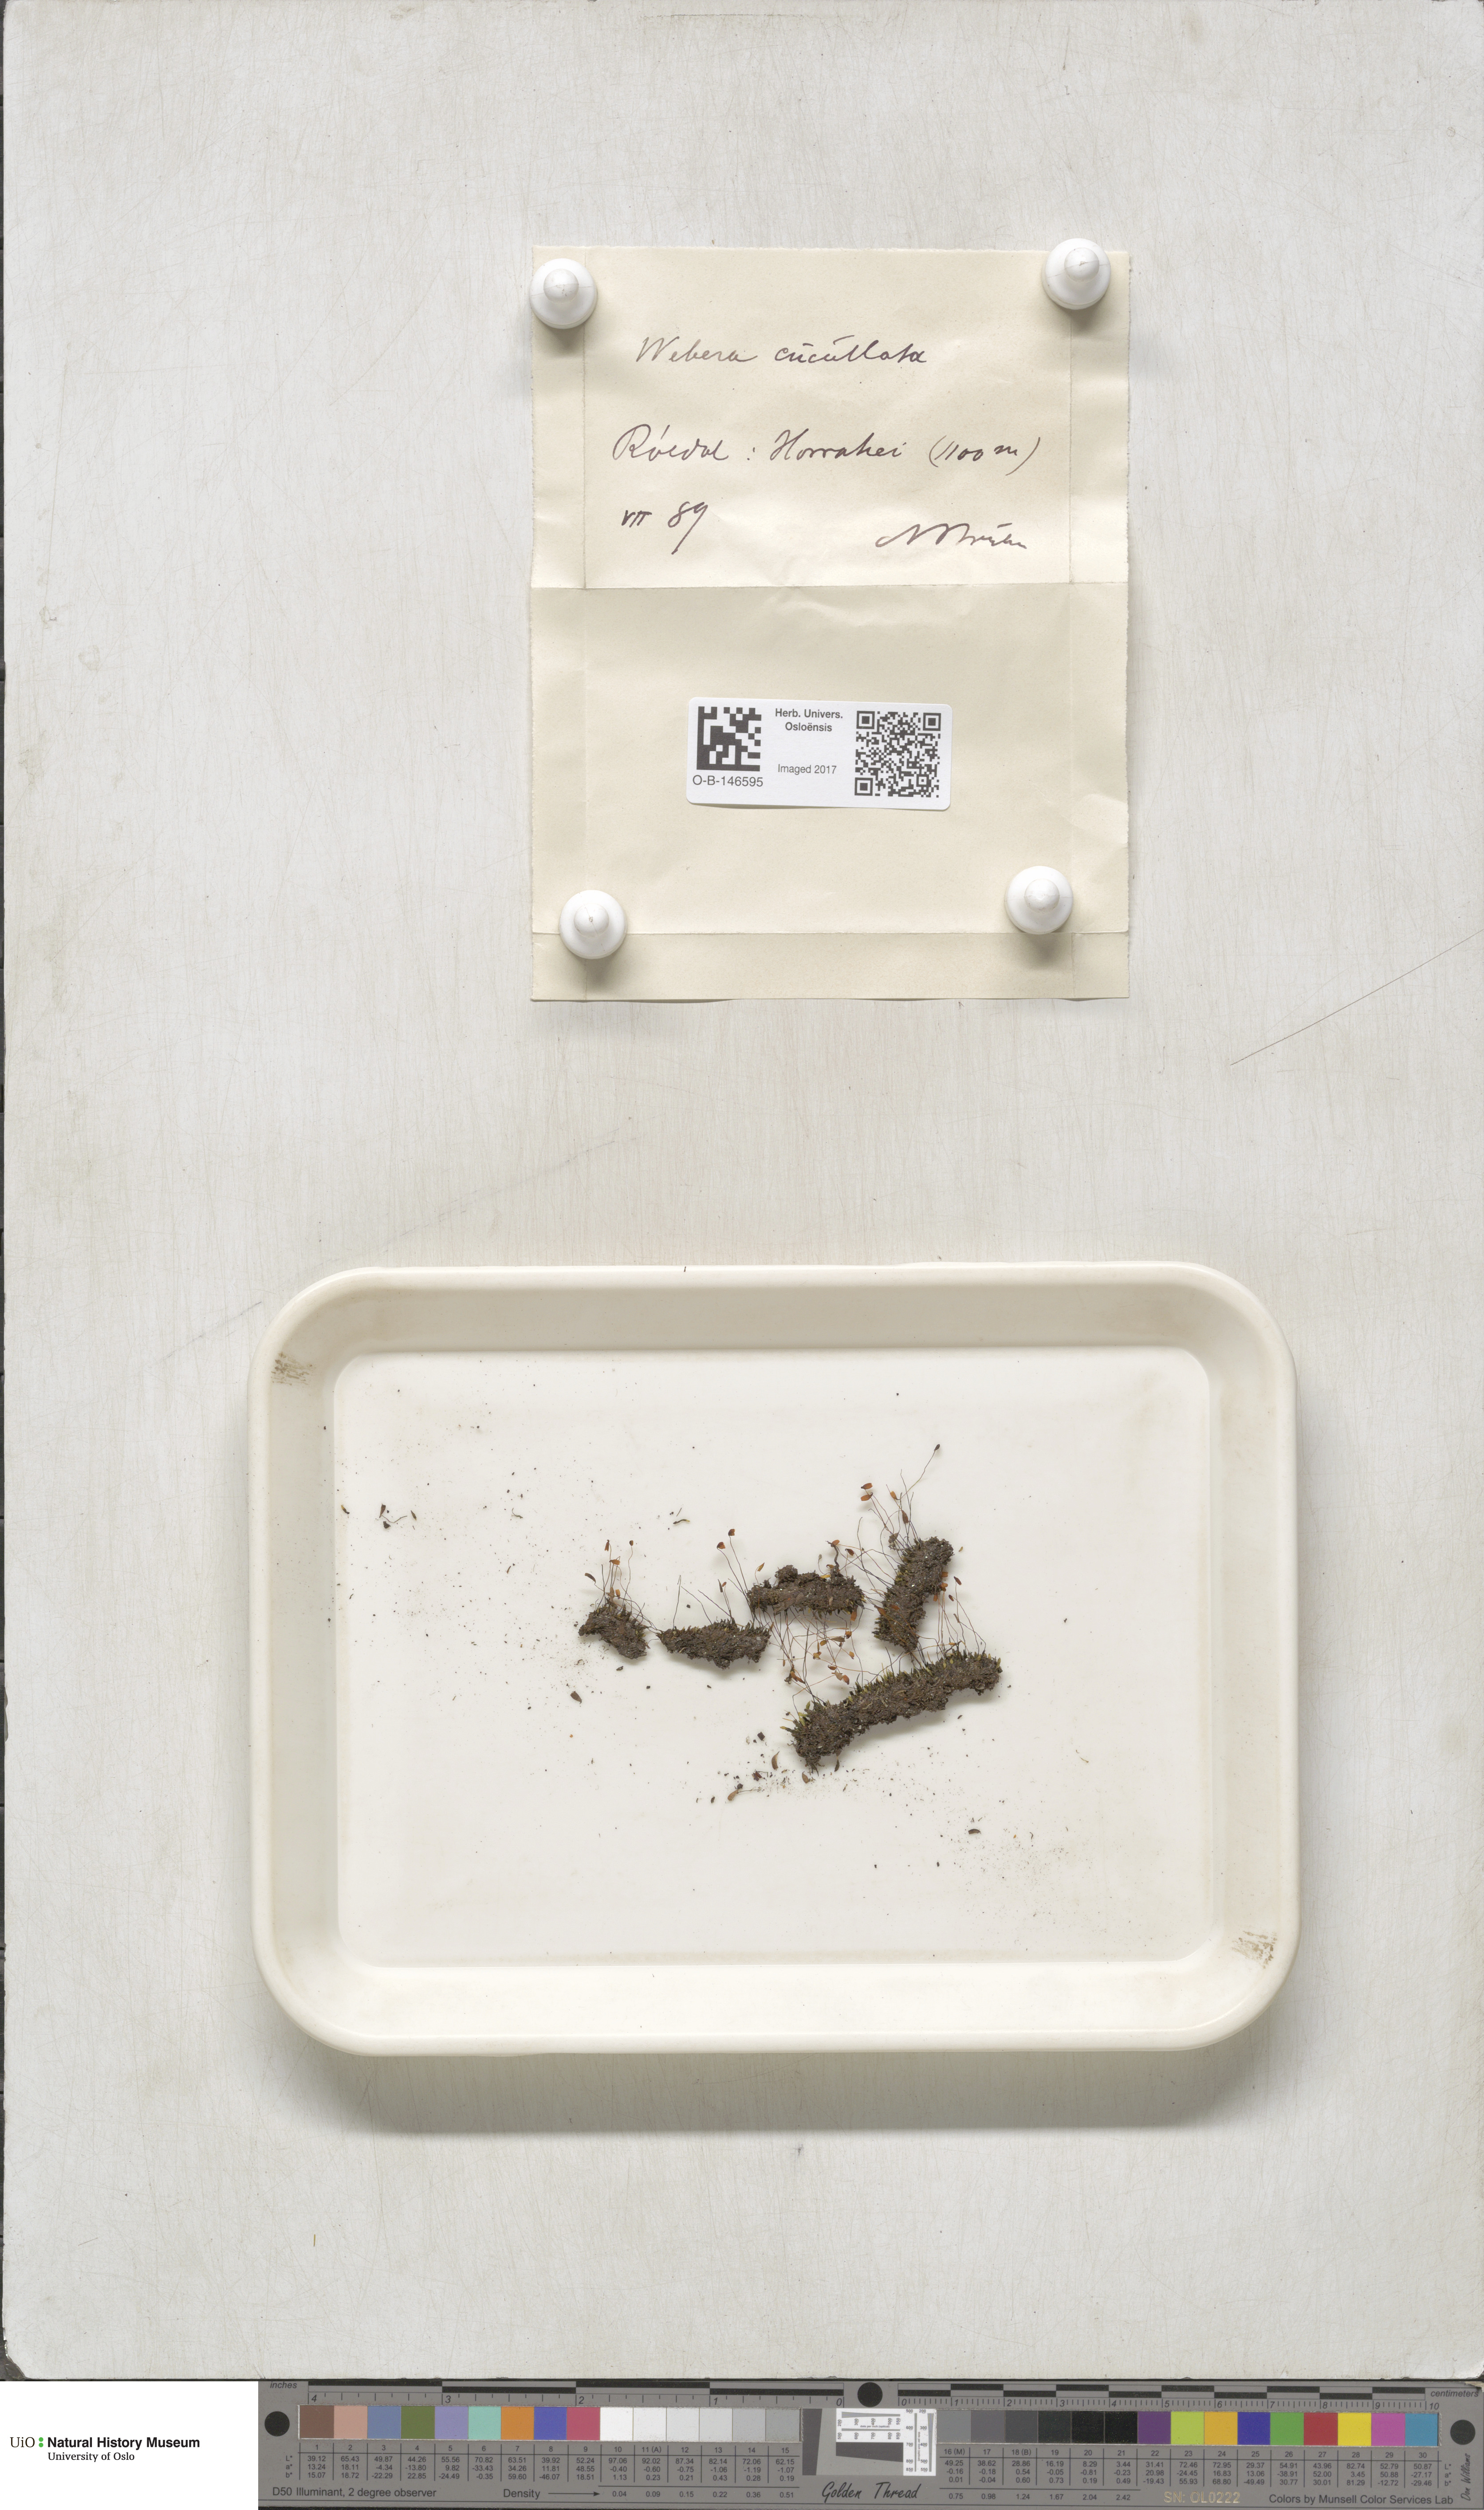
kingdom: Plantae
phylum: Bryophyta
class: Bryopsida
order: Bryales
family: Mniaceae
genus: Pohlia
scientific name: Pohlia obtusifolia
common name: Blunt nodding moss
